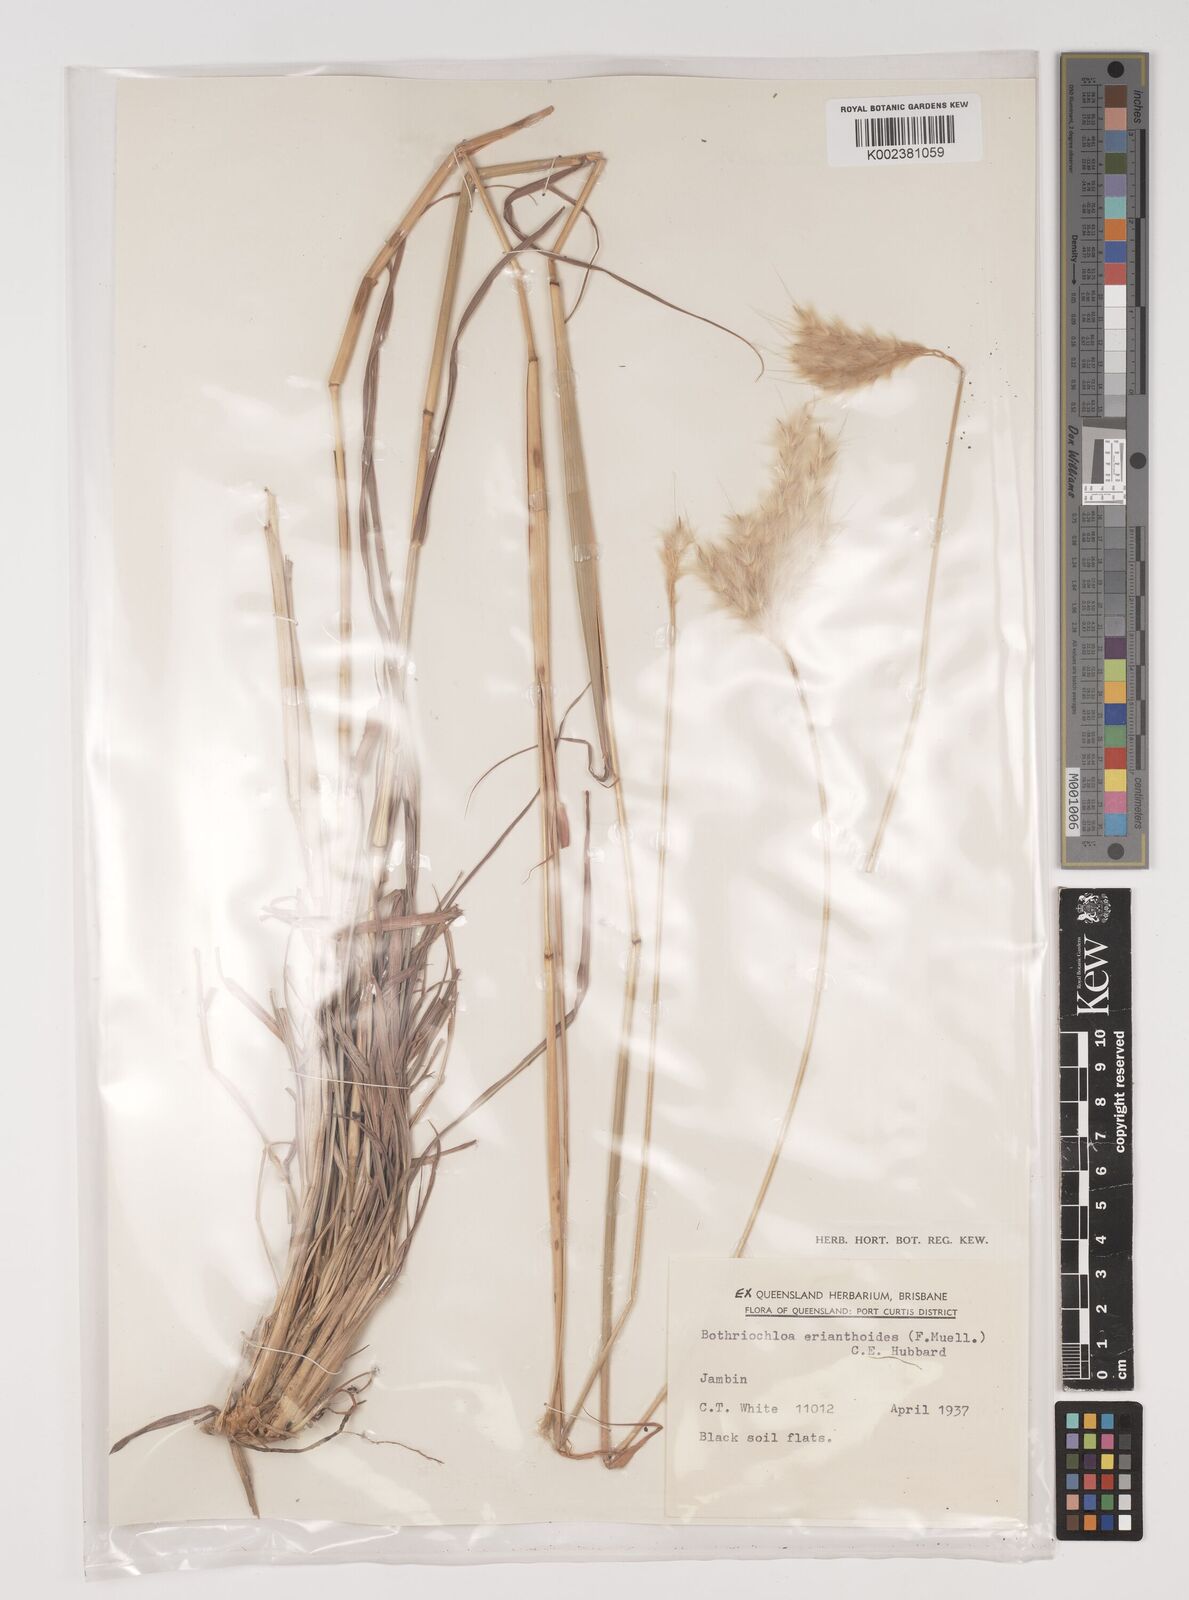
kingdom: Plantae
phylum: Tracheophyta
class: Liliopsida
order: Poales
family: Poaceae
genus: Bothriochloa
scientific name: Bothriochloa erianthoides
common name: Satin-top grass
